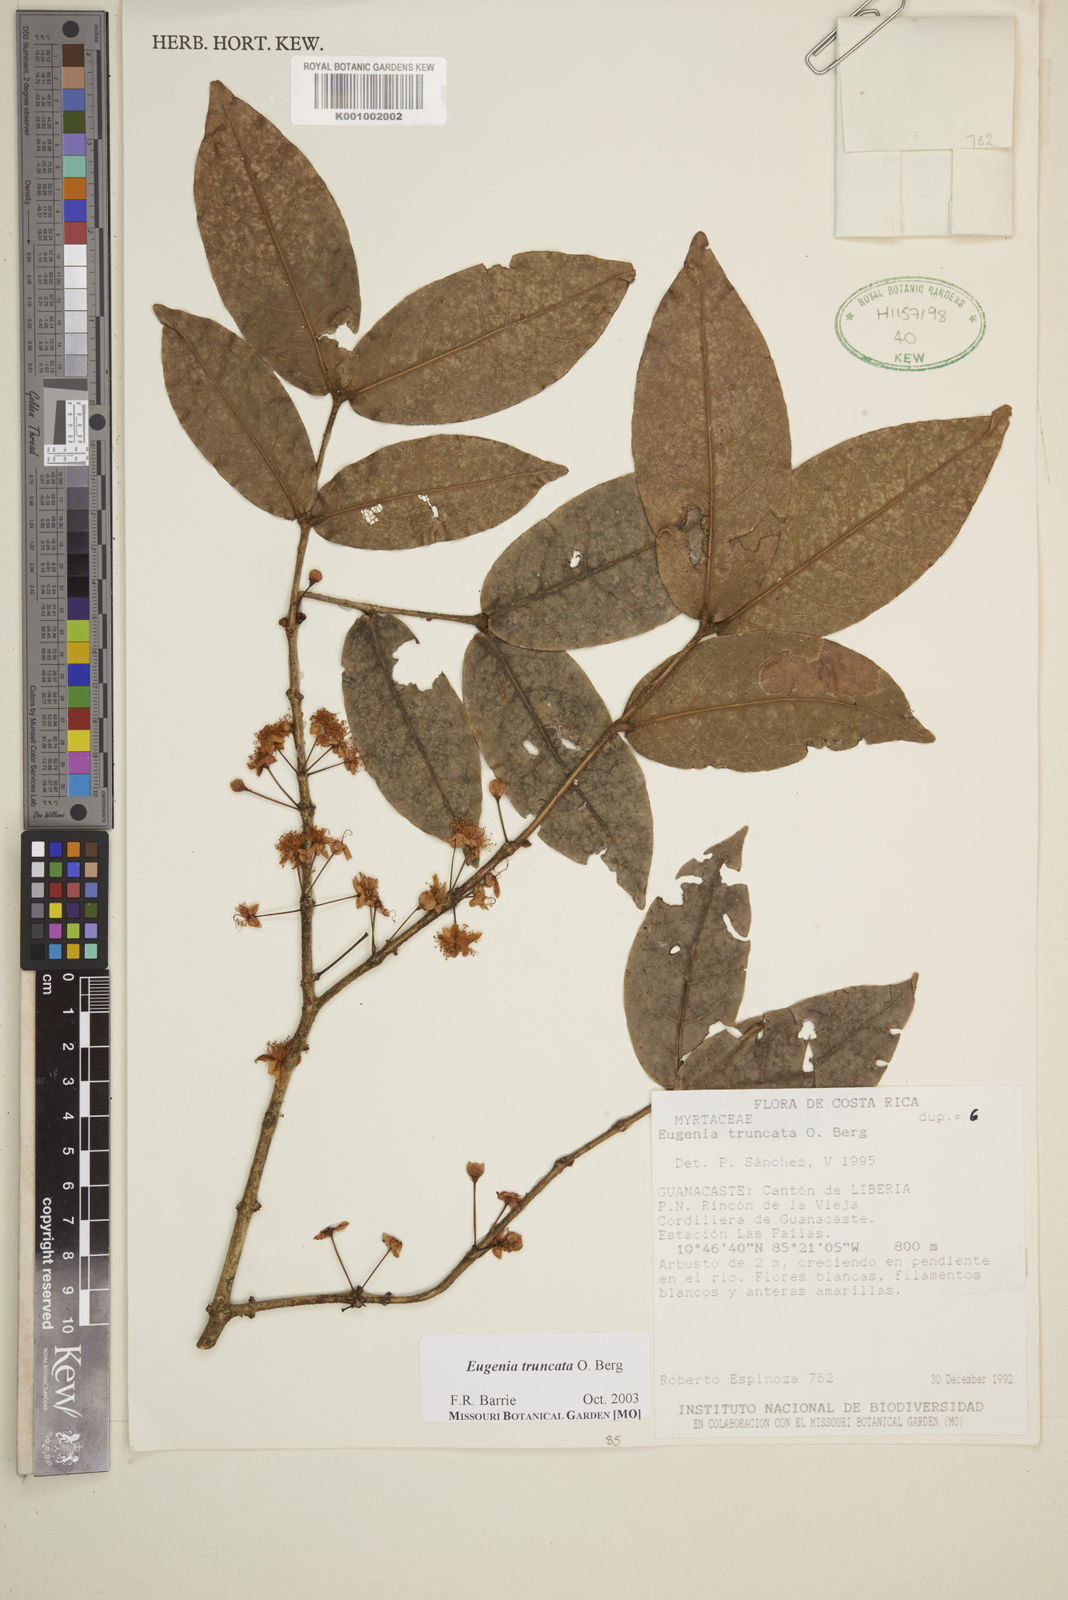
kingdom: Plantae
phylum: Tracheophyta
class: Magnoliopsida
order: Myrtales
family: Myrtaceae
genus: Eugenia
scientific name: Eugenia truncata
